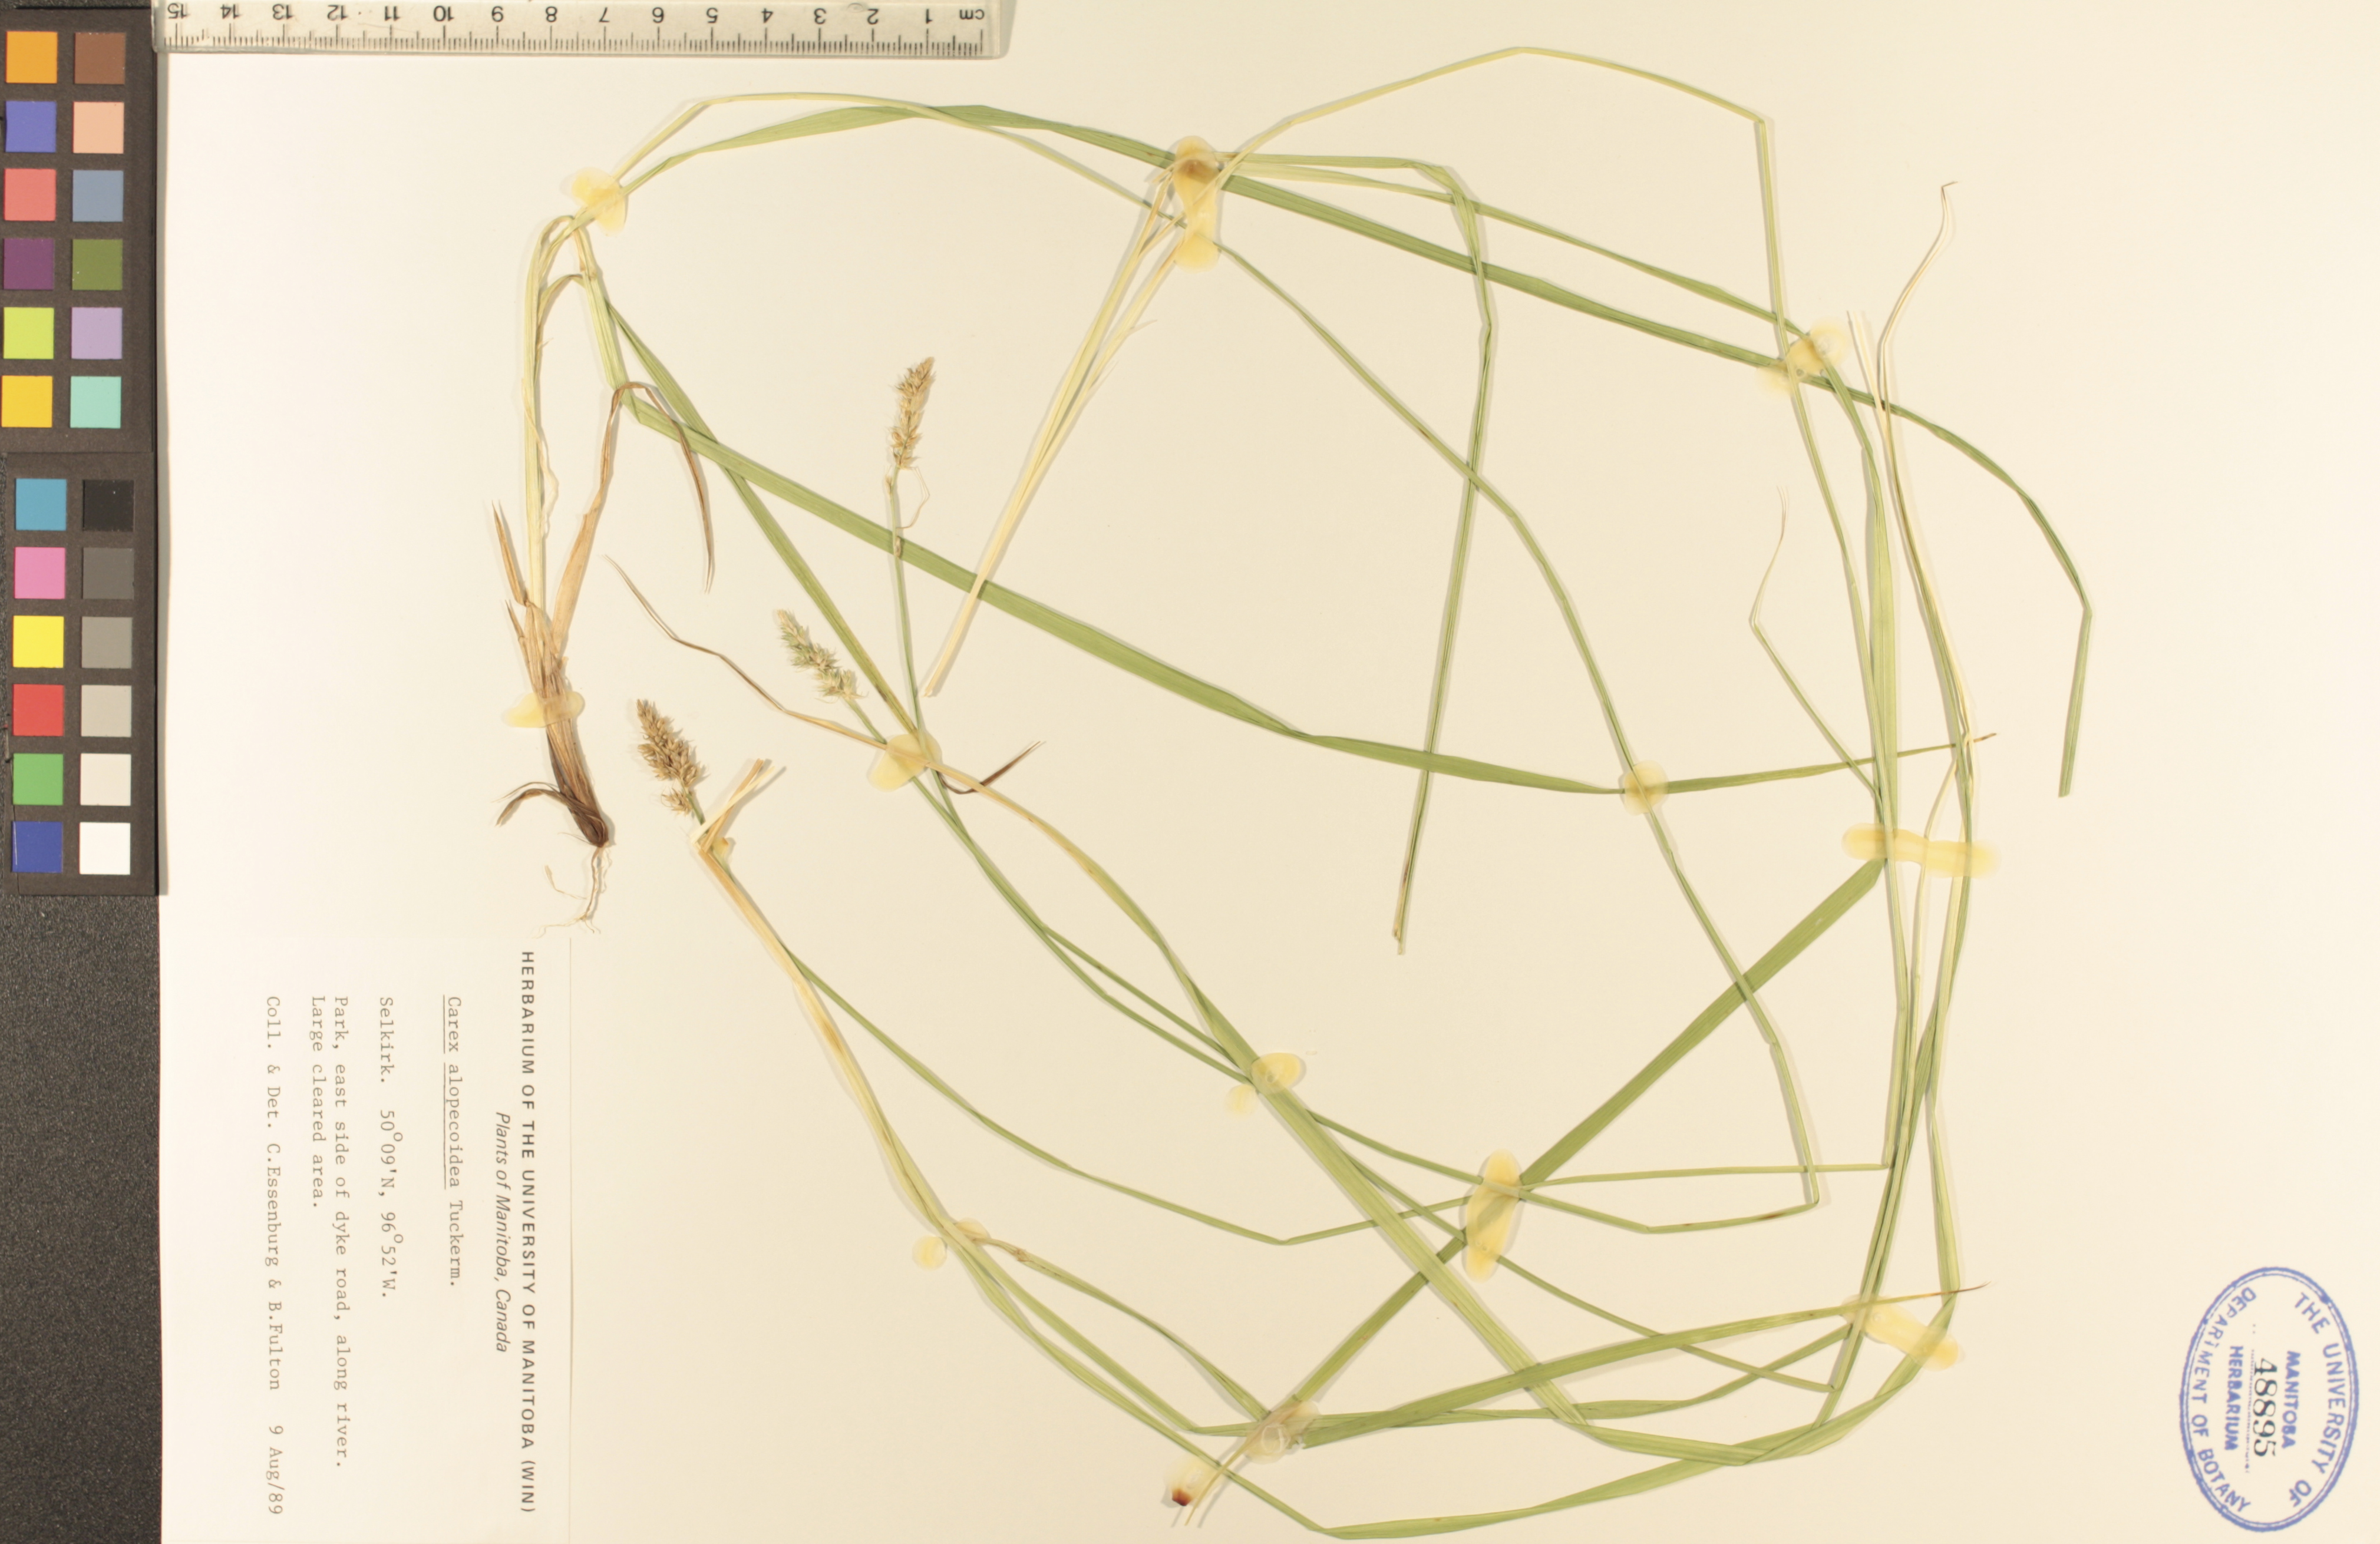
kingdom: Plantae
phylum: Tracheophyta
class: Liliopsida
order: Poales
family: Cyperaceae
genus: Carex
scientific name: Carex alopecoidea
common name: Brown-headed fox sedge
